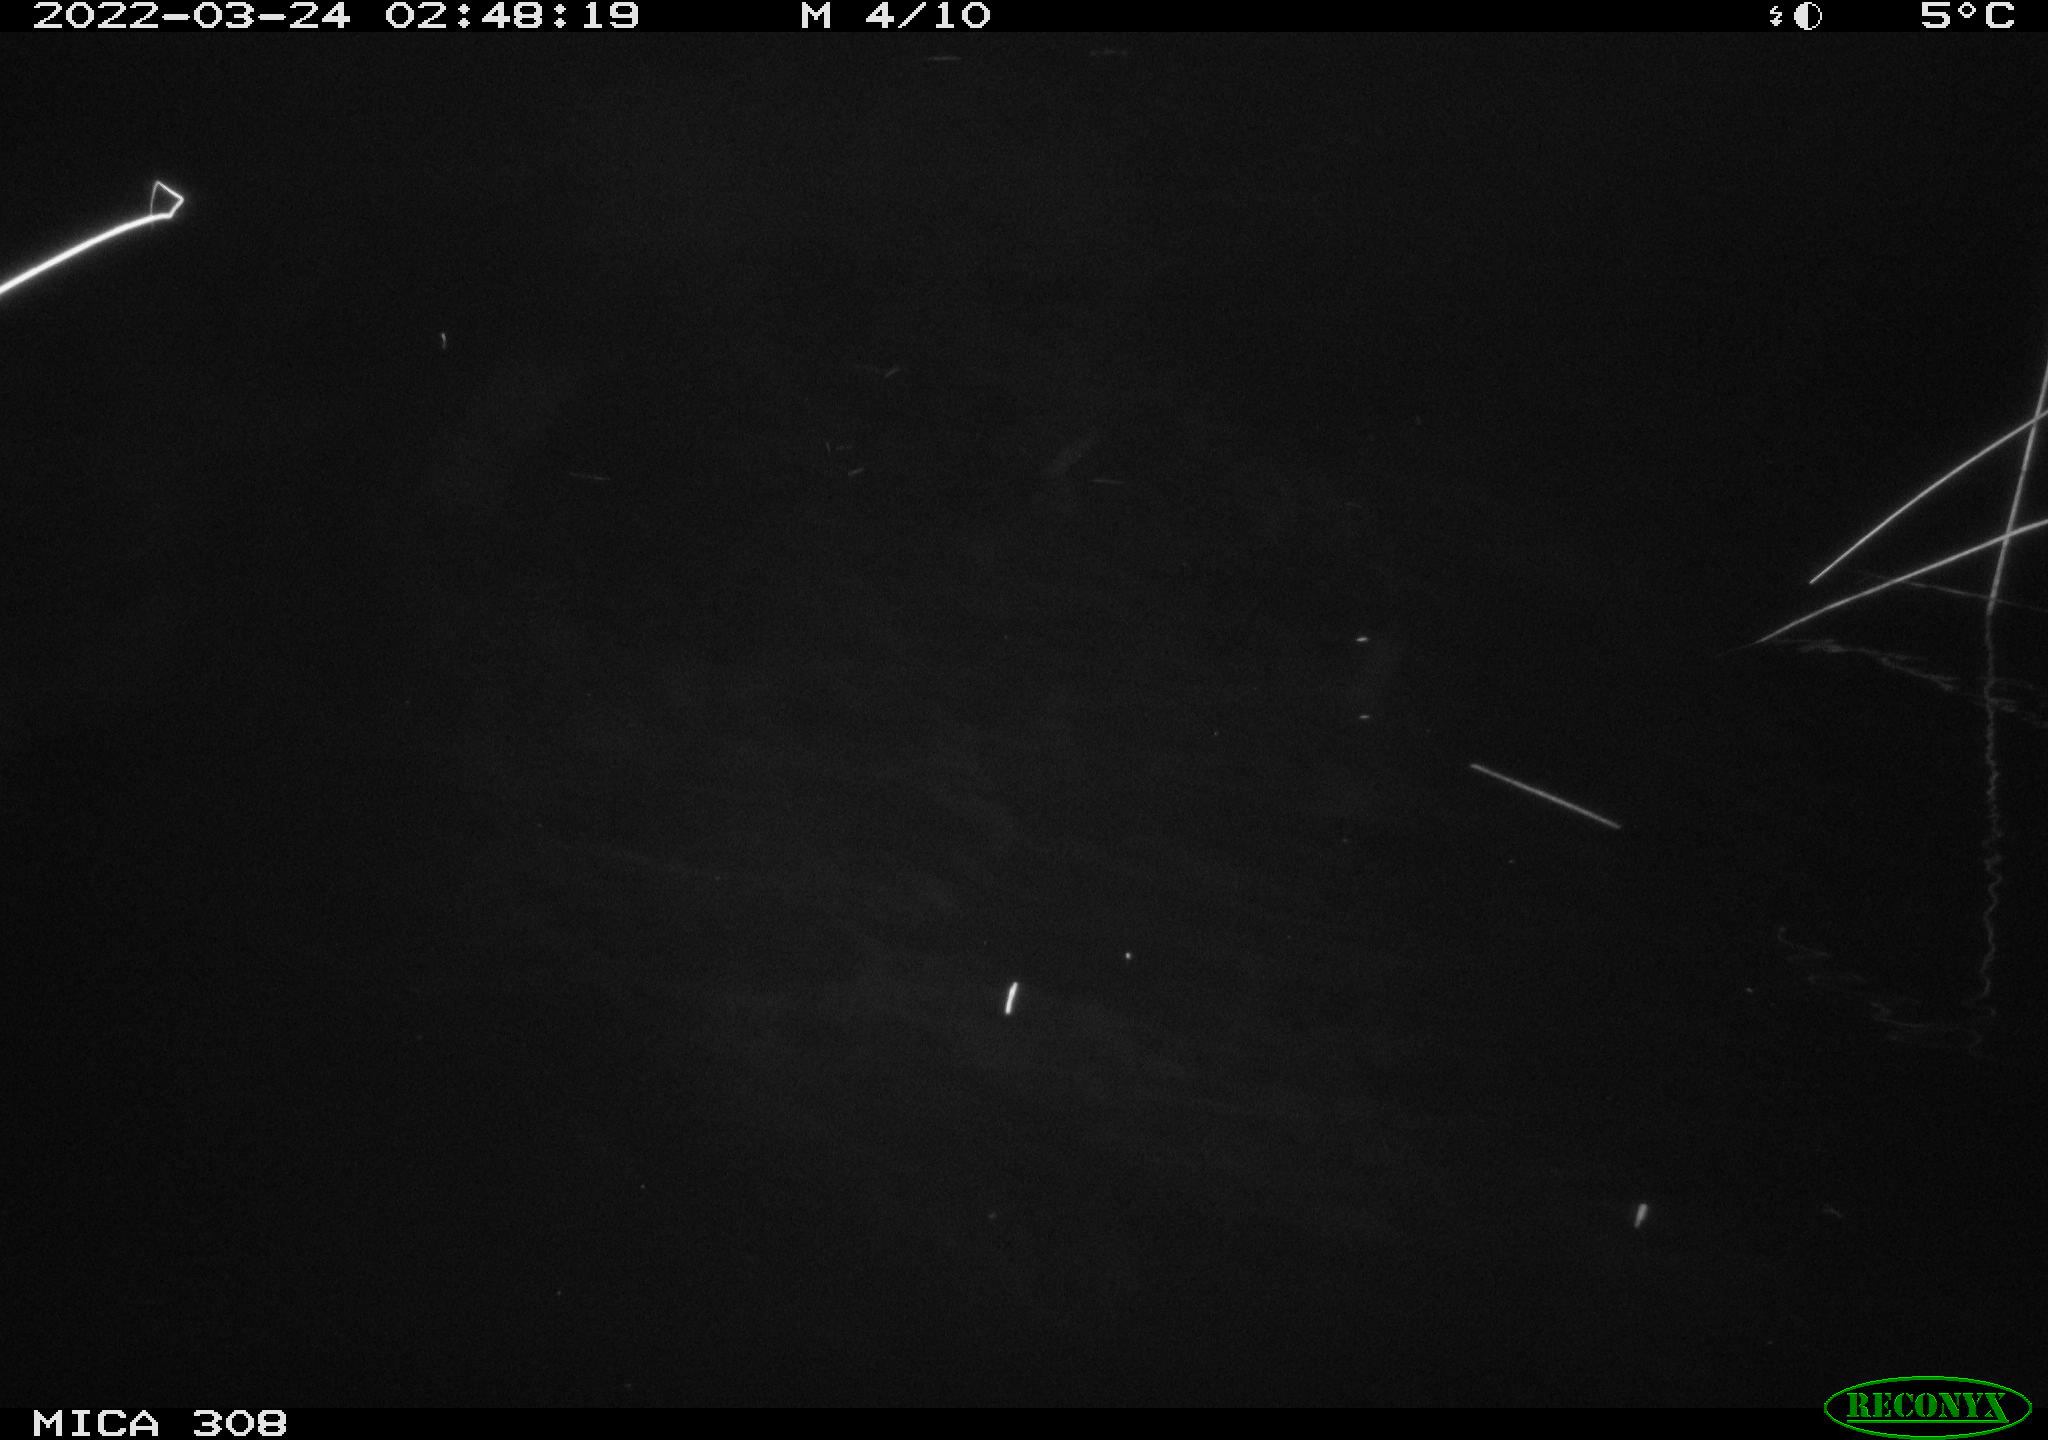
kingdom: Animalia
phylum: Chordata
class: Mammalia
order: Rodentia
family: Cricetidae
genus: Ondatra
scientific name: Ondatra zibethicus
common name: Muskrat
